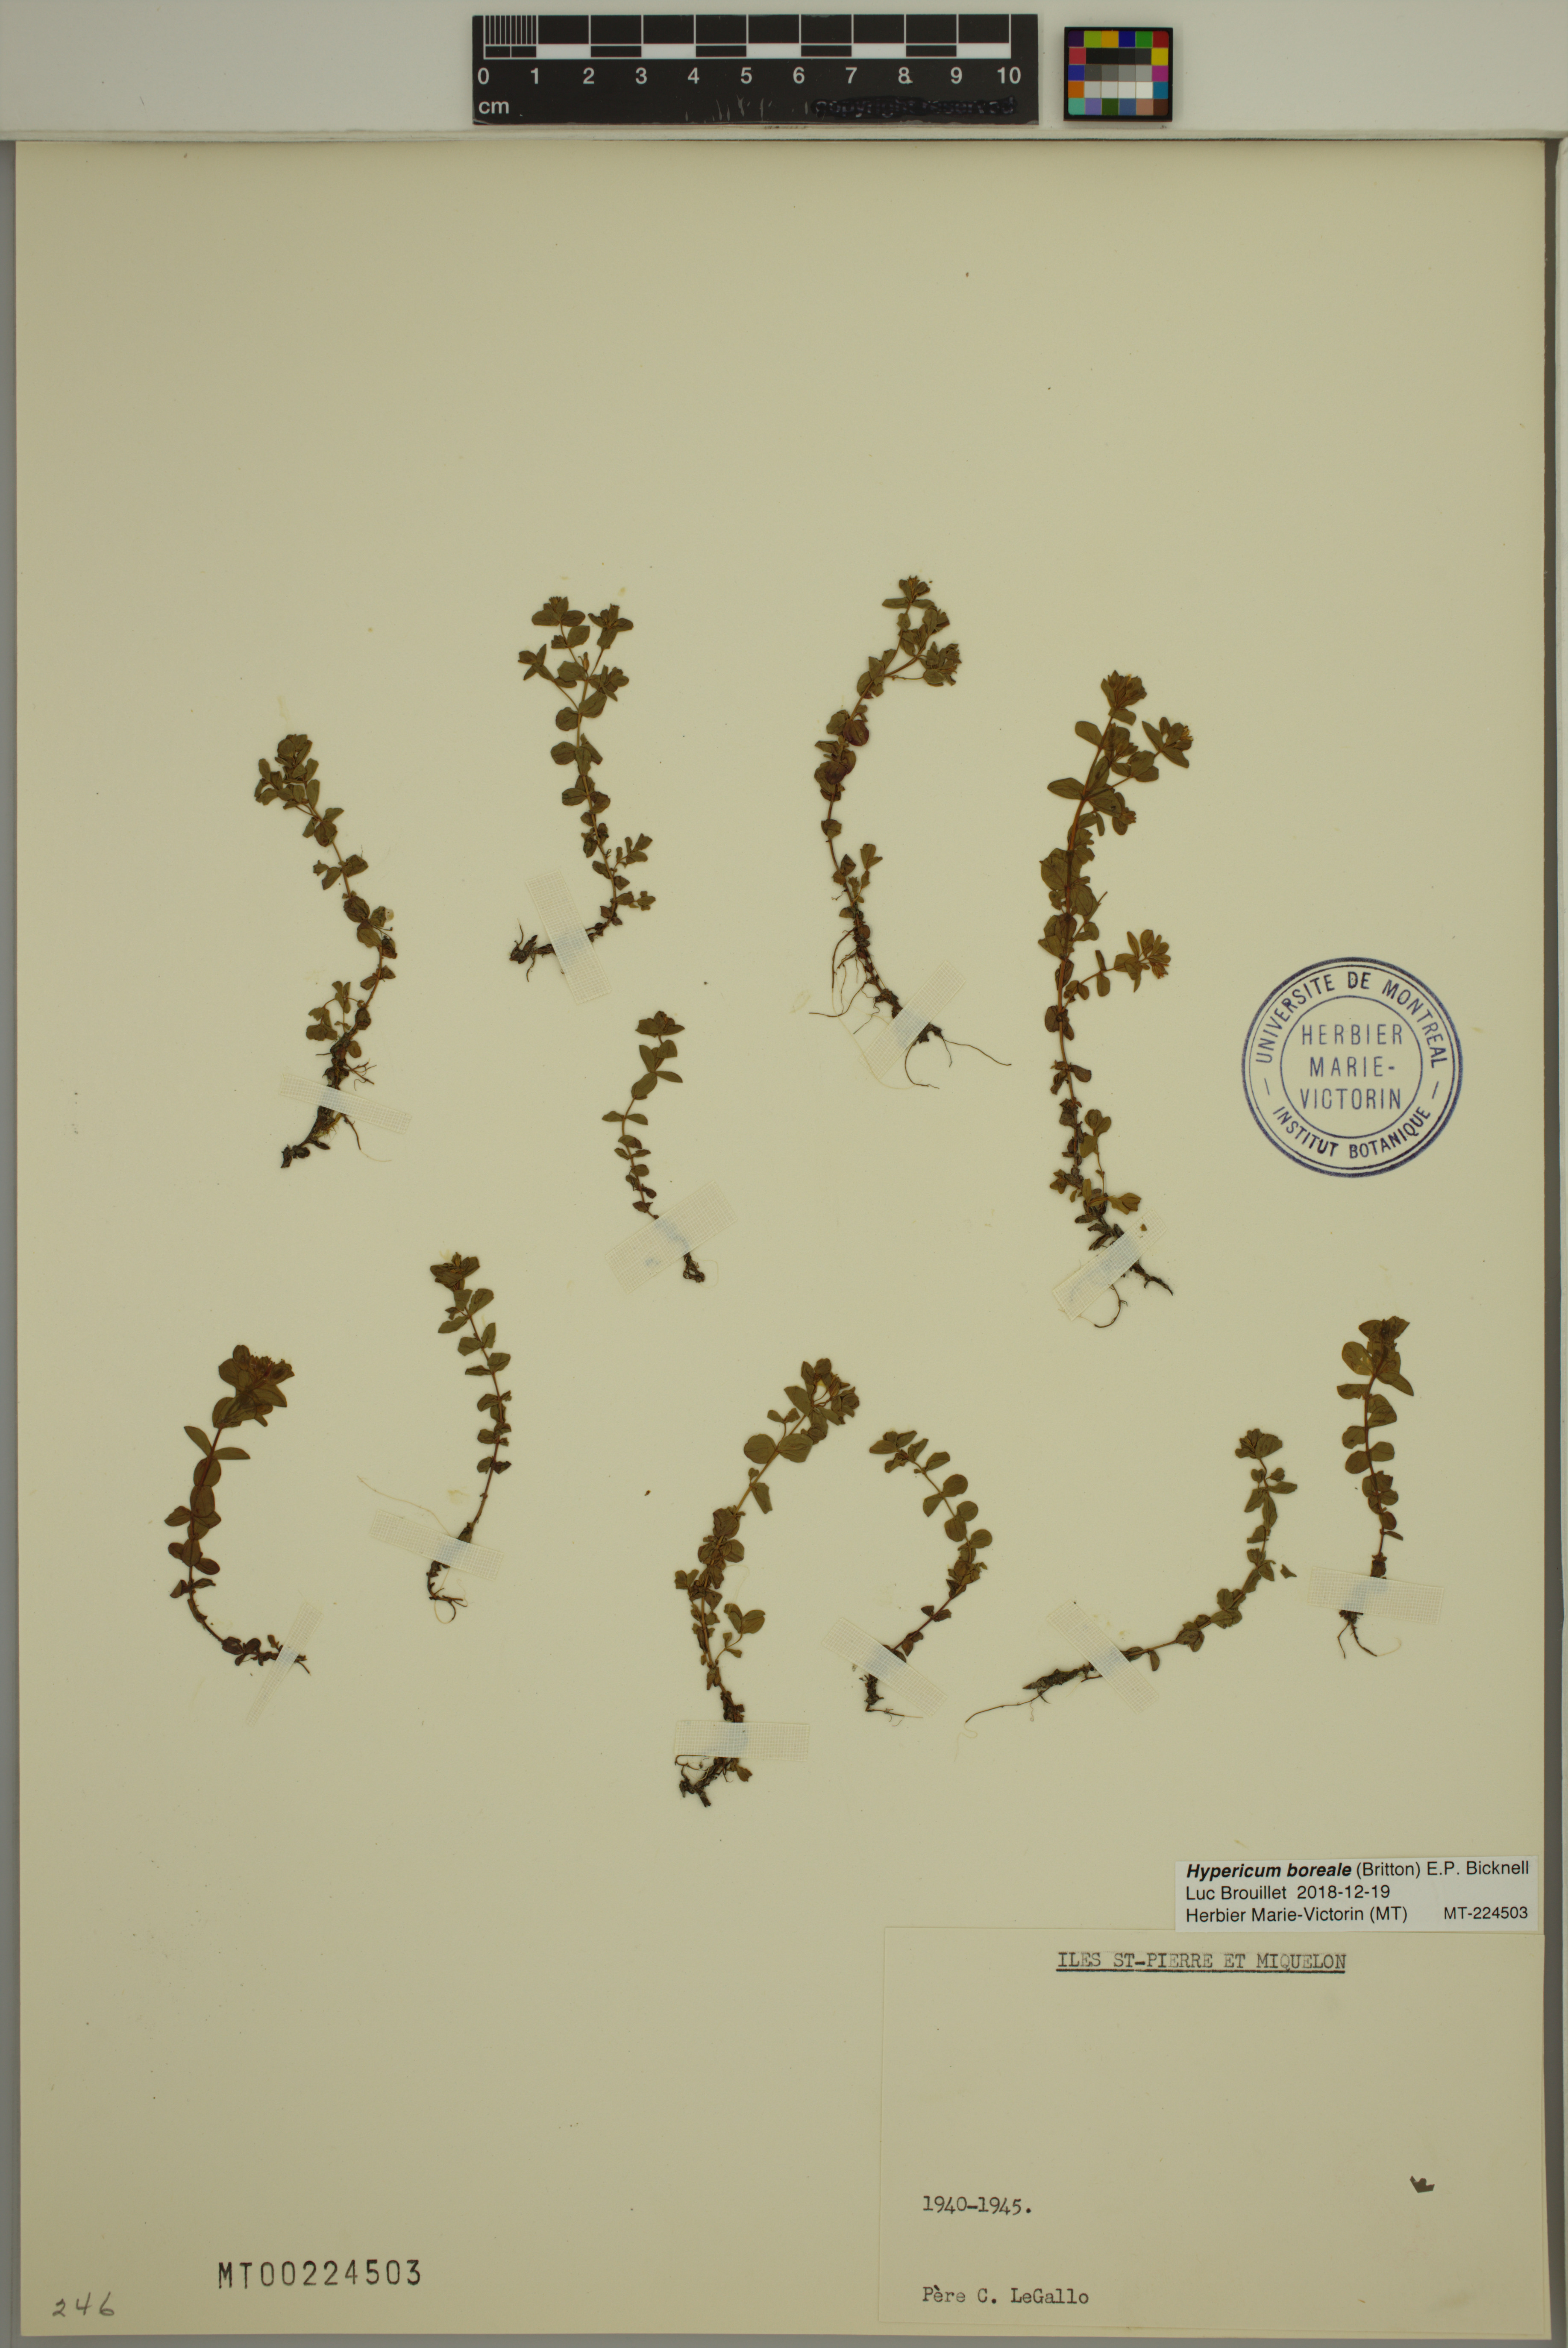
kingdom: Plantae
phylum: Tracheophyta
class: Magnoliopsida
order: Malpighiales
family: Hypericaceae
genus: Hypericum
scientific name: Hypericum boreale
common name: Northern bog st. john's-wort
